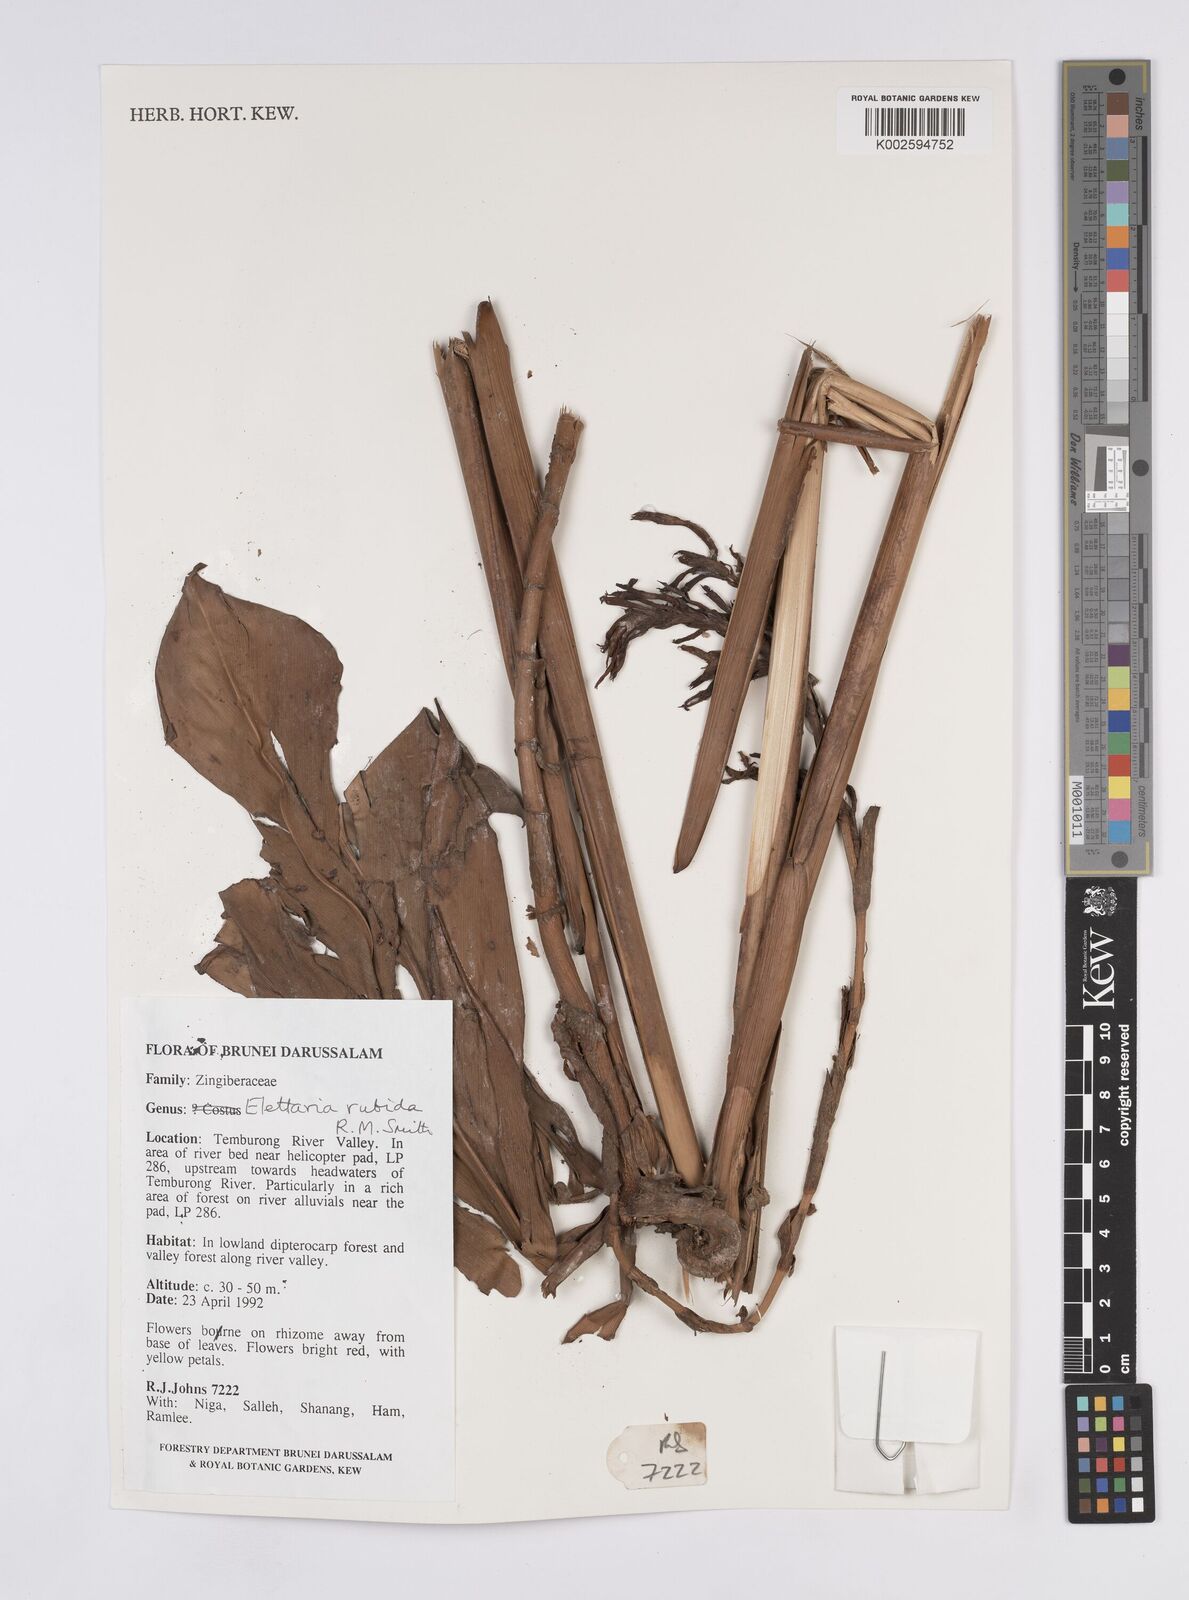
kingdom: Plantae
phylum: Tracheophyta
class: Liliopsida
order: Zingiberales
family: Zingiberaceae
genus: Sulettaria
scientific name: Sulettaria rubida
